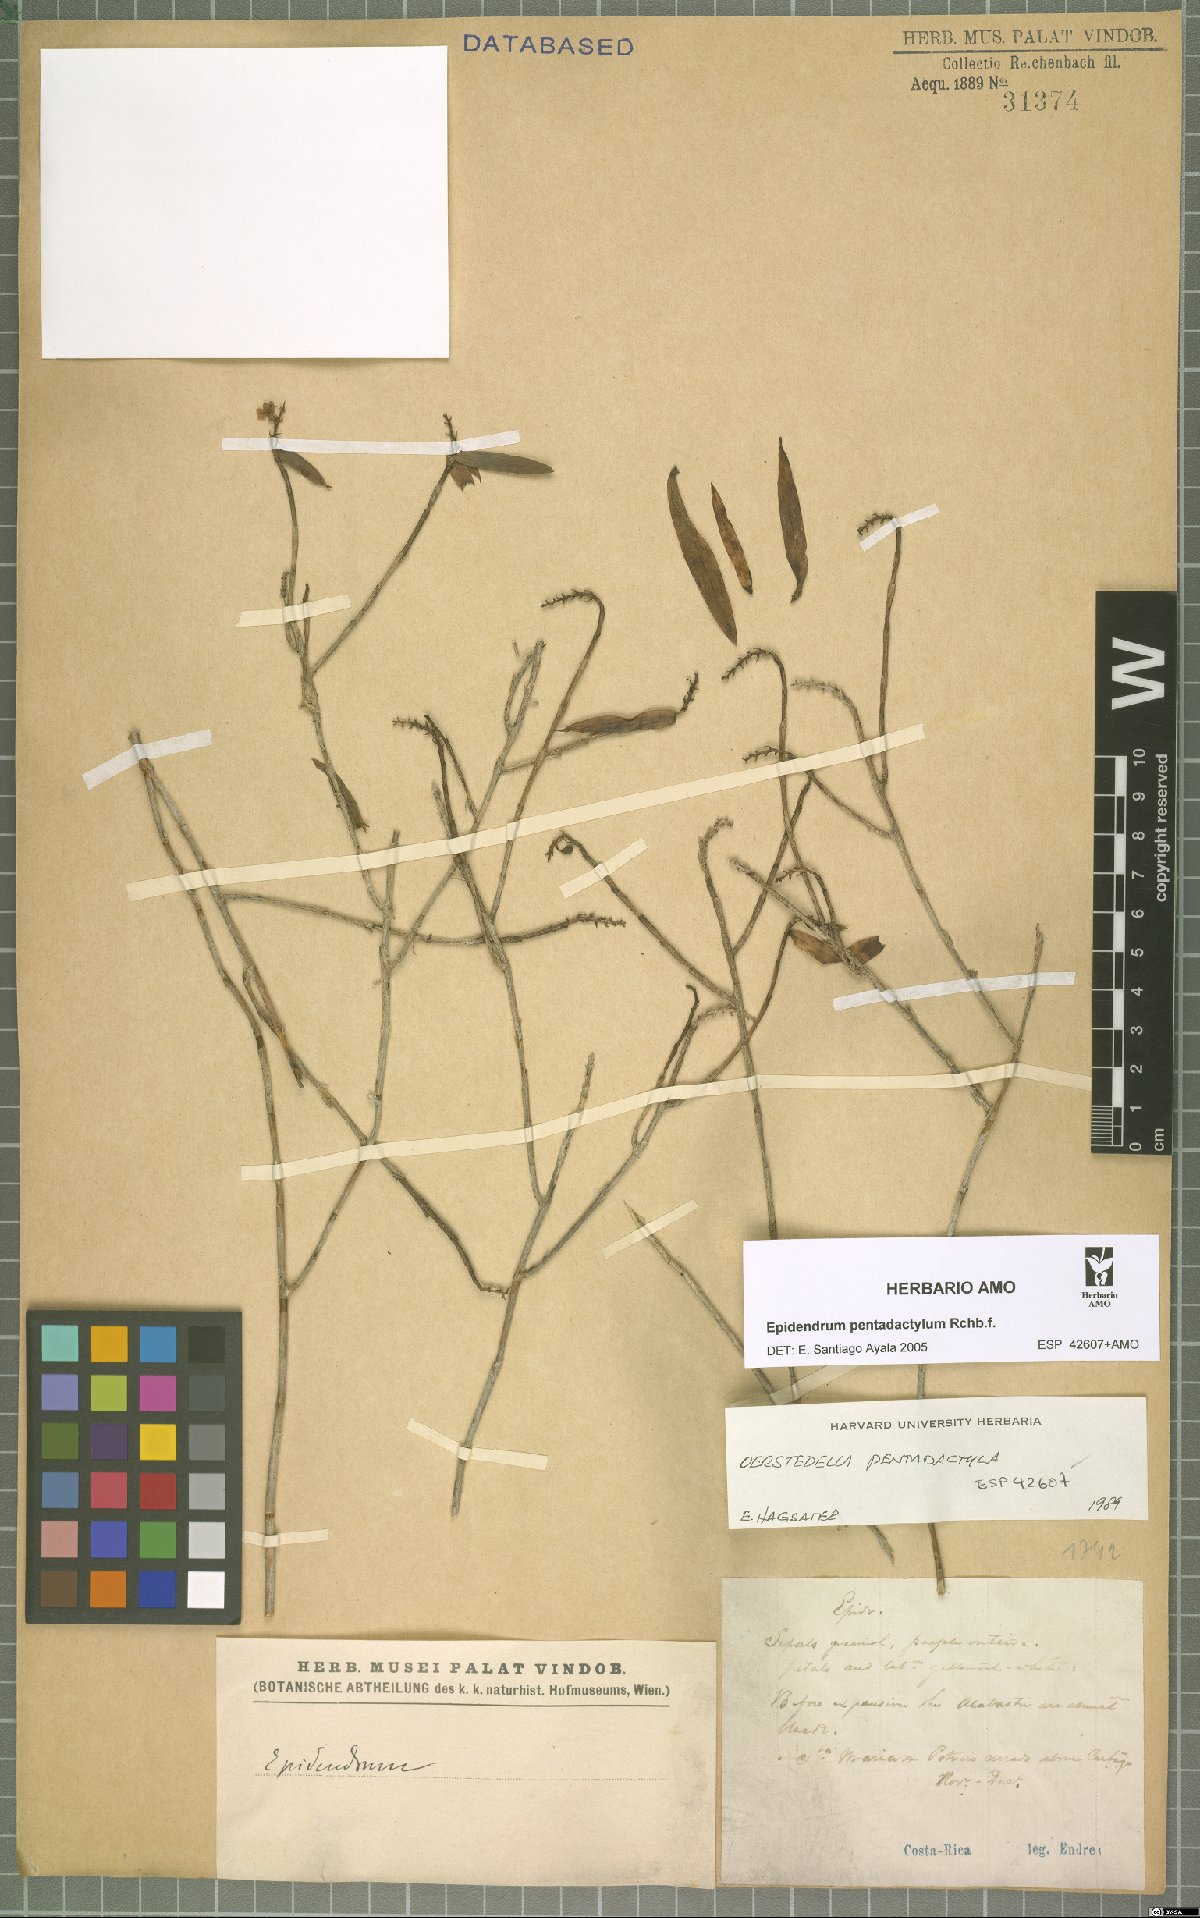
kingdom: Plantae
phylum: Tracheophyta
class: Liliopsida
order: Asparagales
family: Orchidaceae
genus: Epidendrum
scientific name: Epidendrum pentadactylum
